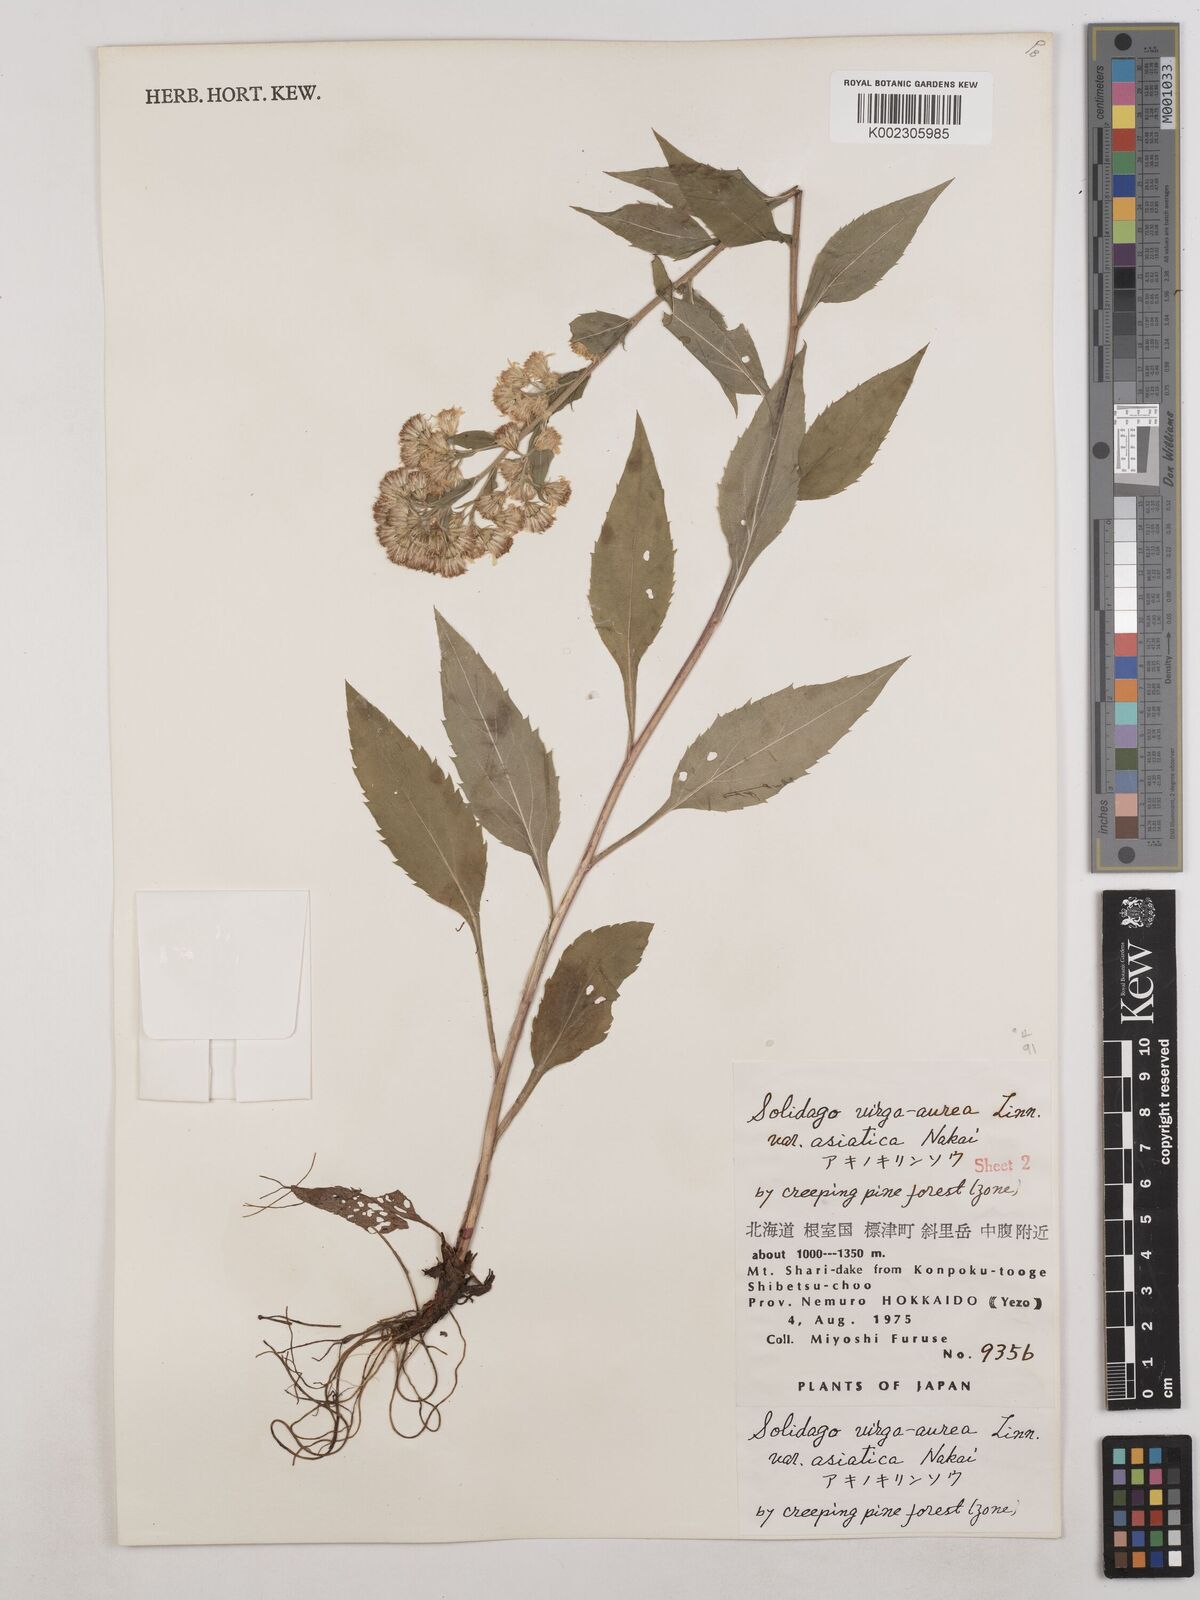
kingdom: Plantae
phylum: Tracheophyta
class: Magnoliopsida
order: Asterales
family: Asteraceae
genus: Solidago
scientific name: Solidago virgaurea
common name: Goldenrod
